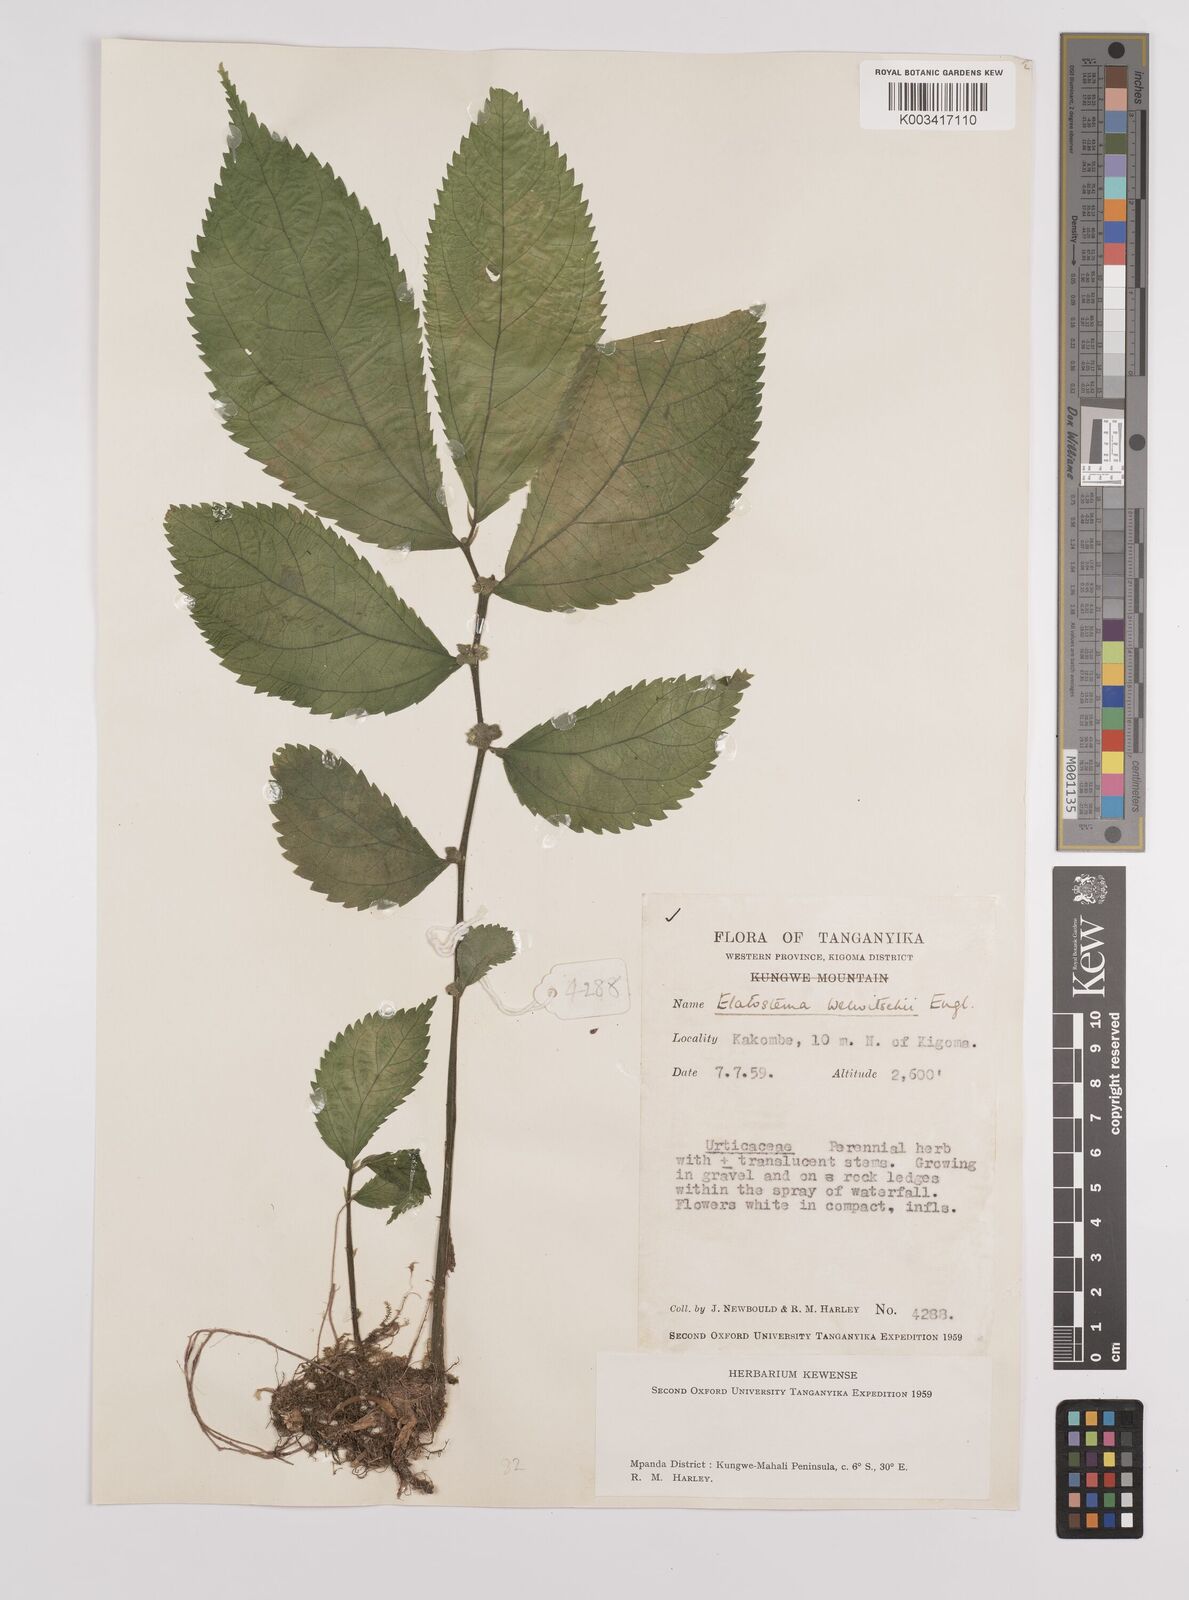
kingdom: Plantae
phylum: Tracheophyta
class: Magnoliopsida
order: Rosales
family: Urticaceae
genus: Elatostema
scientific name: Elatostema welwitschii
